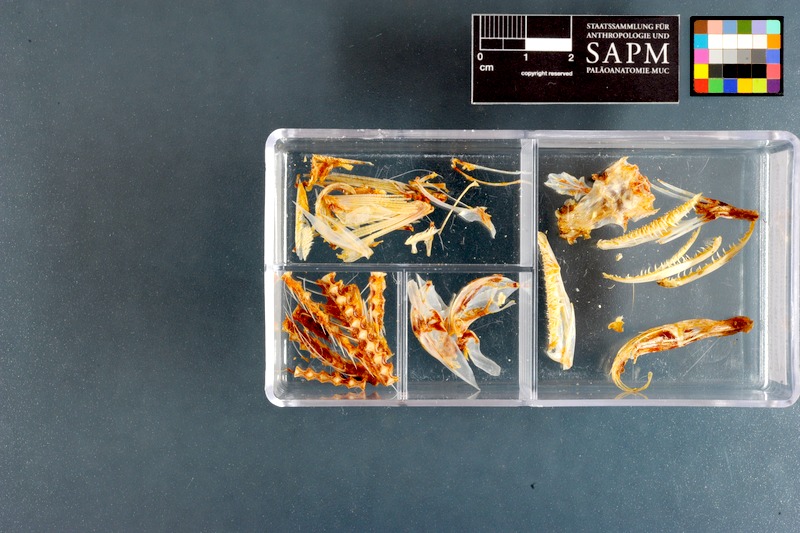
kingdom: Animalia
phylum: Chordata
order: Aulopiformes
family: Synodontidae
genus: Saurida
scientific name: Saurida undosquamis
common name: Brushtooth lizardfish
